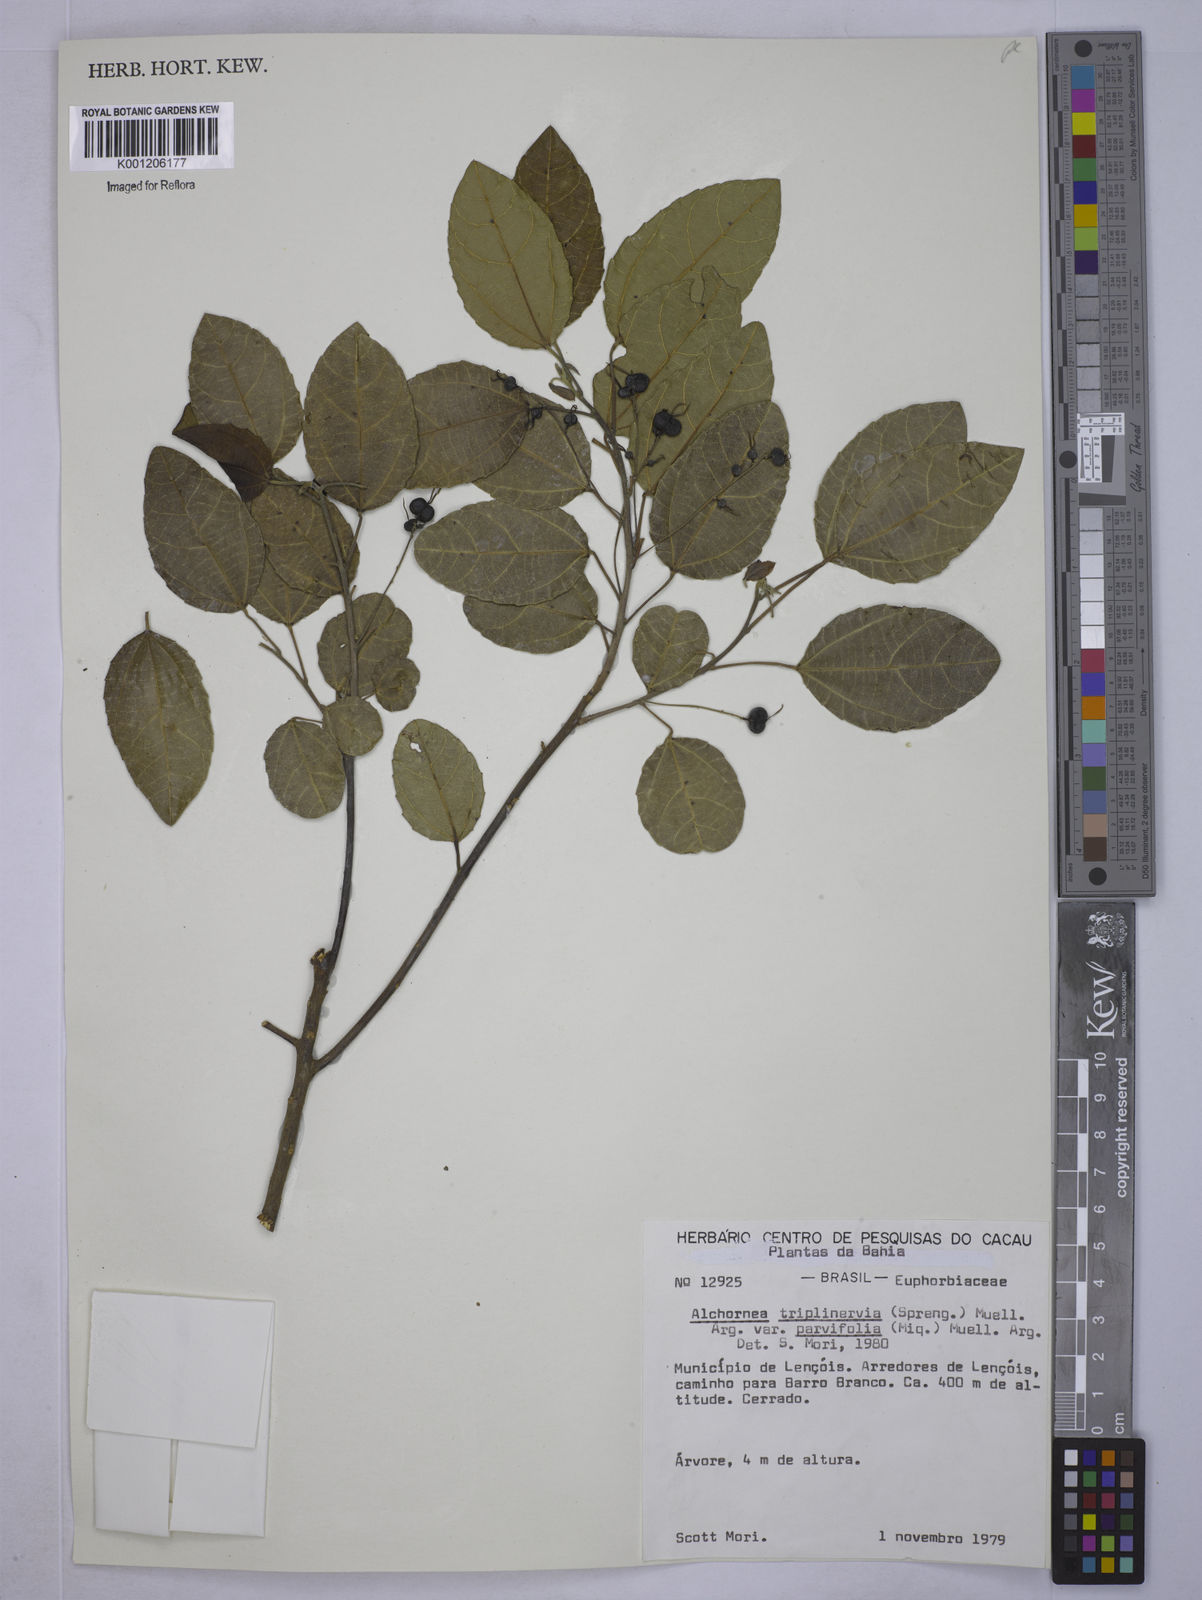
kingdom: Plantae
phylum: Tracheophyta
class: Magnoliopsida
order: Malpighiales
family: Euphorbiaceae
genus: Alchornea
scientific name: Alchornea
